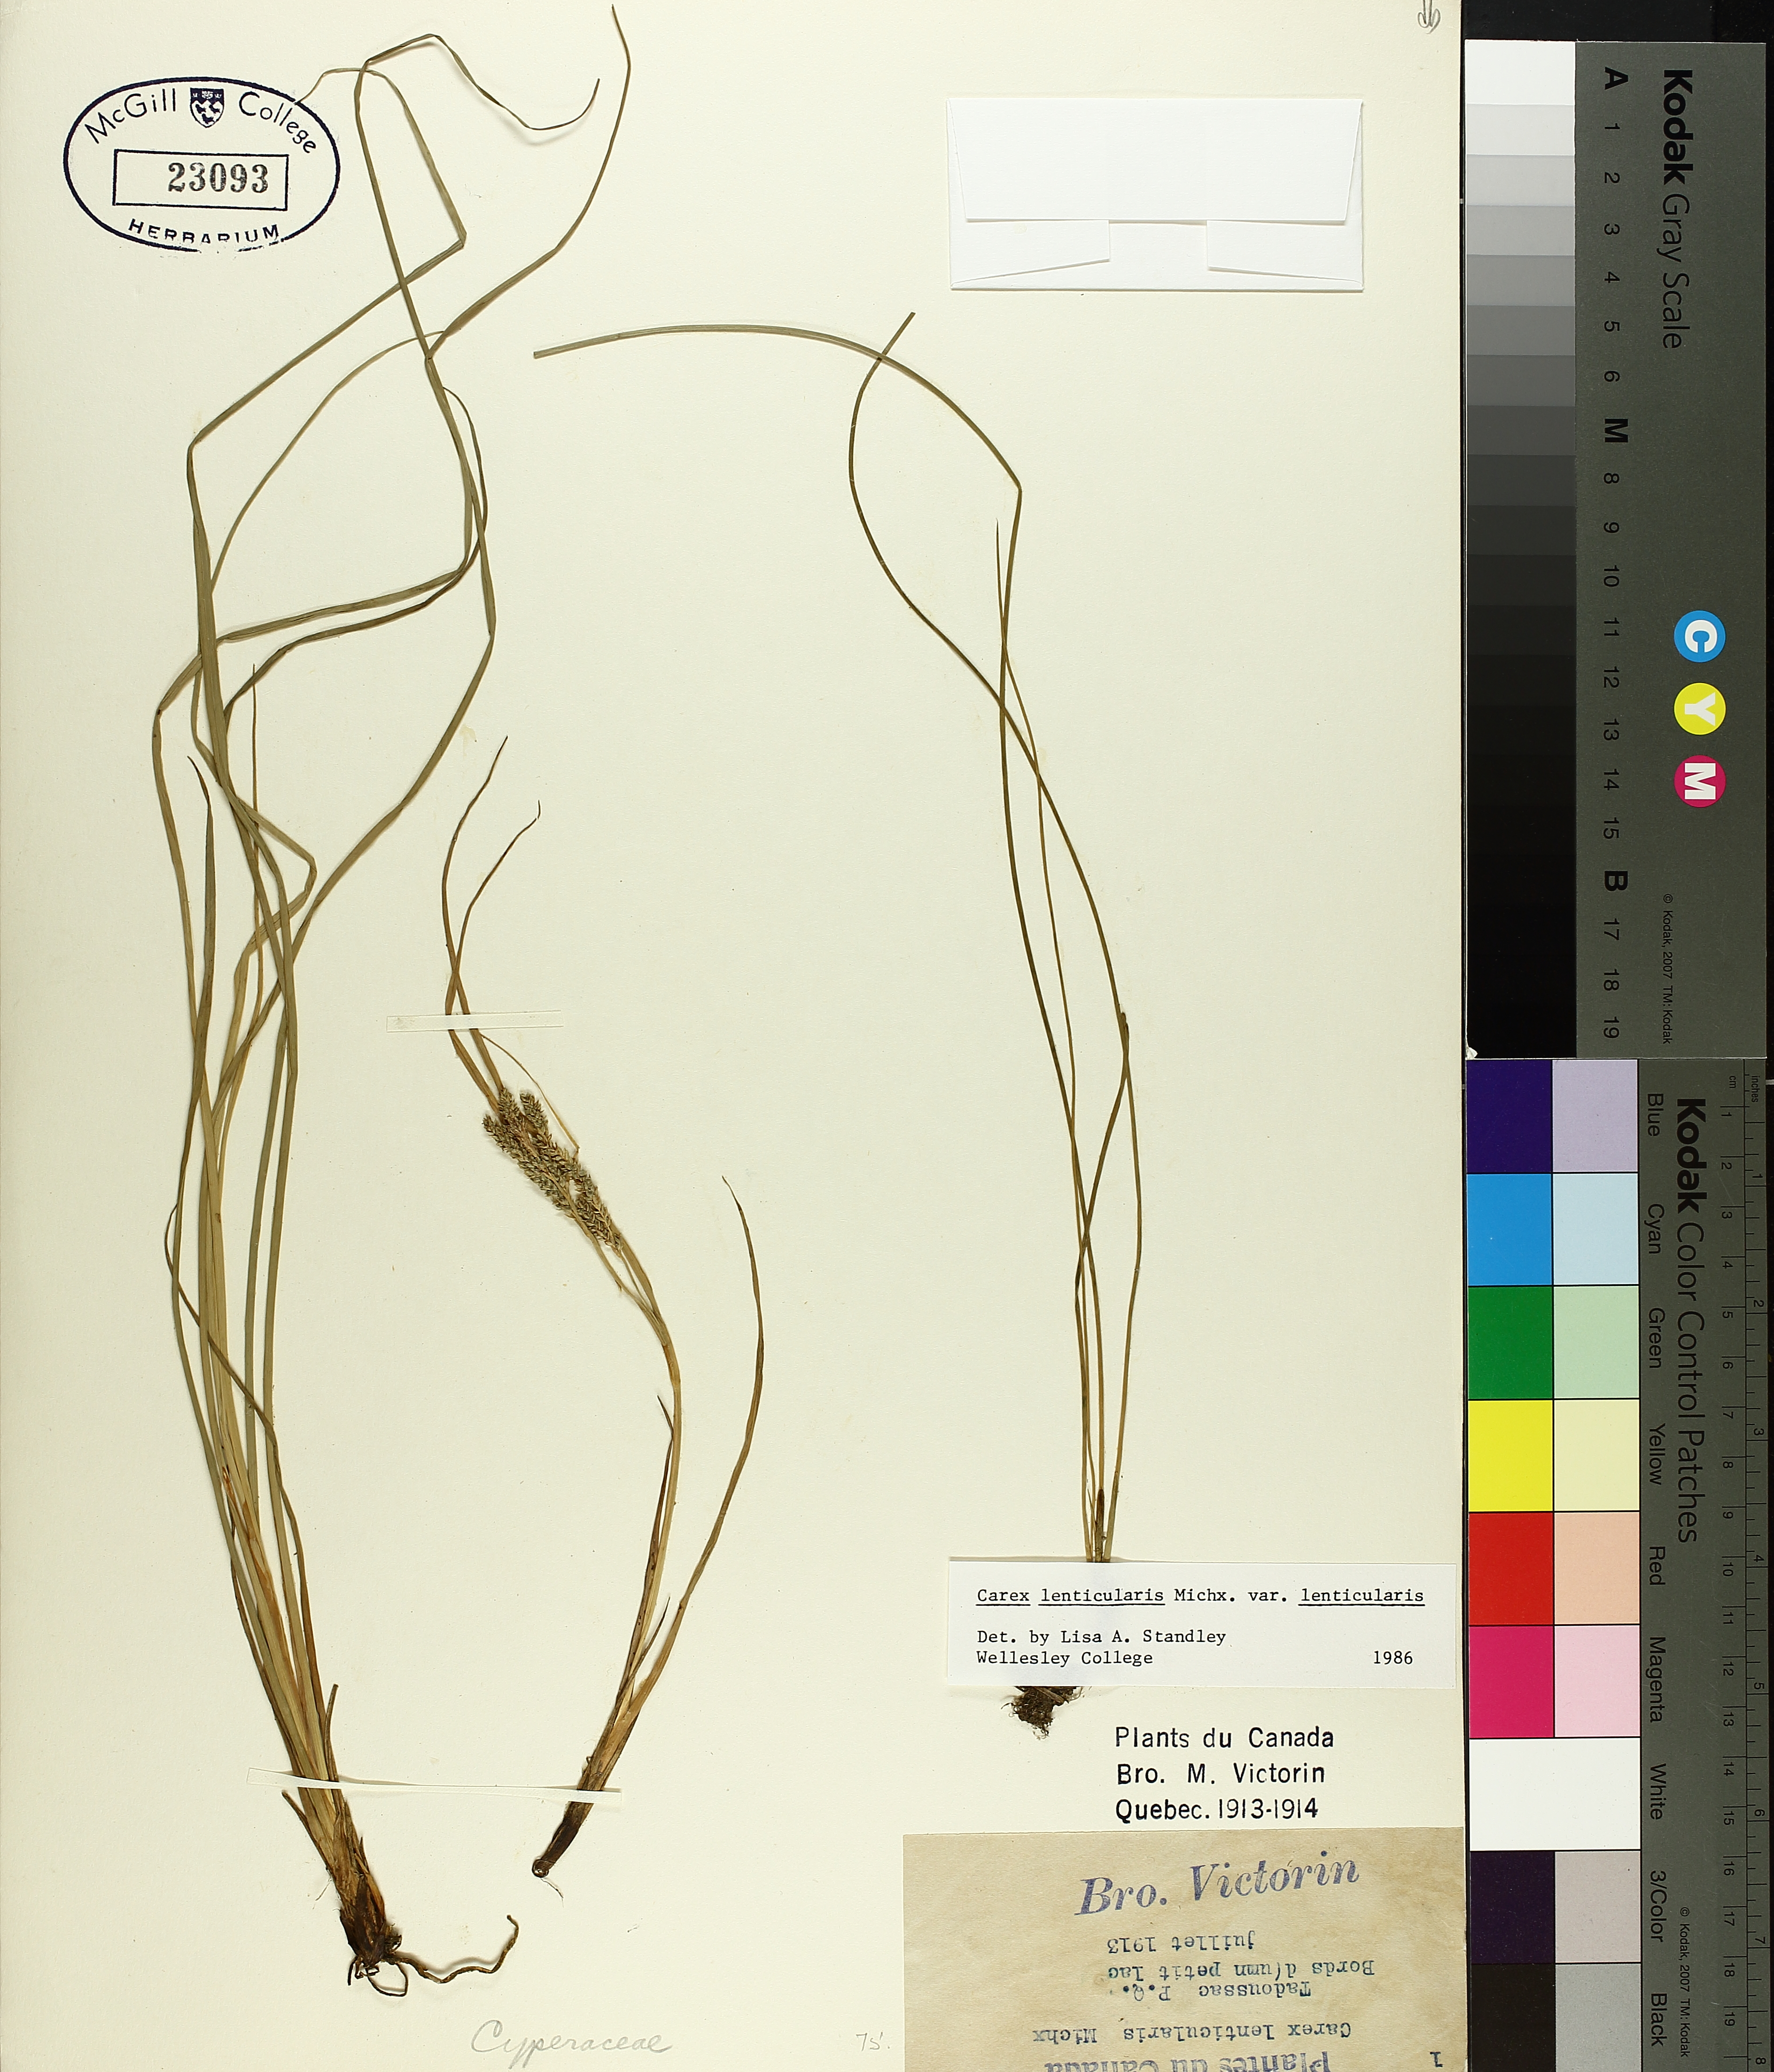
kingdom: Plantae
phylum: Tracheophyta
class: Liliopsida
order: Poales
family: Cyperaceae
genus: Carex
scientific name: Carex lenticularis
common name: Lakeshore sedge
